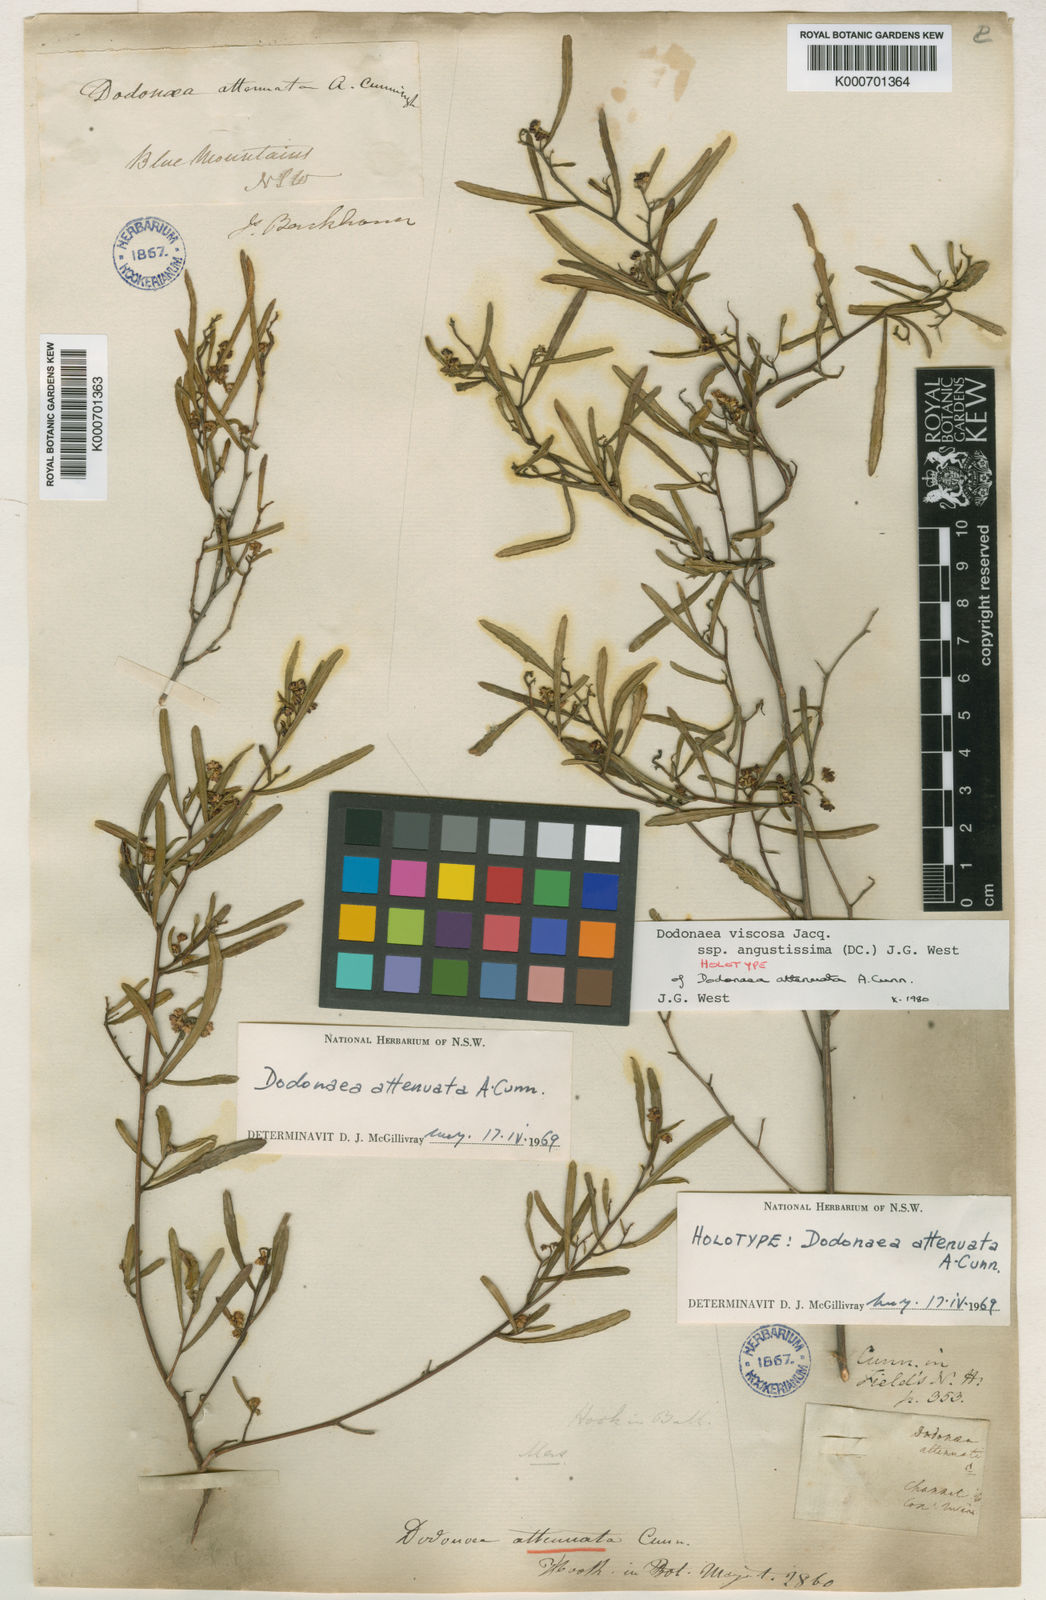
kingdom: Plantae
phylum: Tracheophyta
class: Magnoliopsida
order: Sapindales
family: Sapindaceae
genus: Dodonaea
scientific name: Dodonaea viscosa
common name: Hopbush
